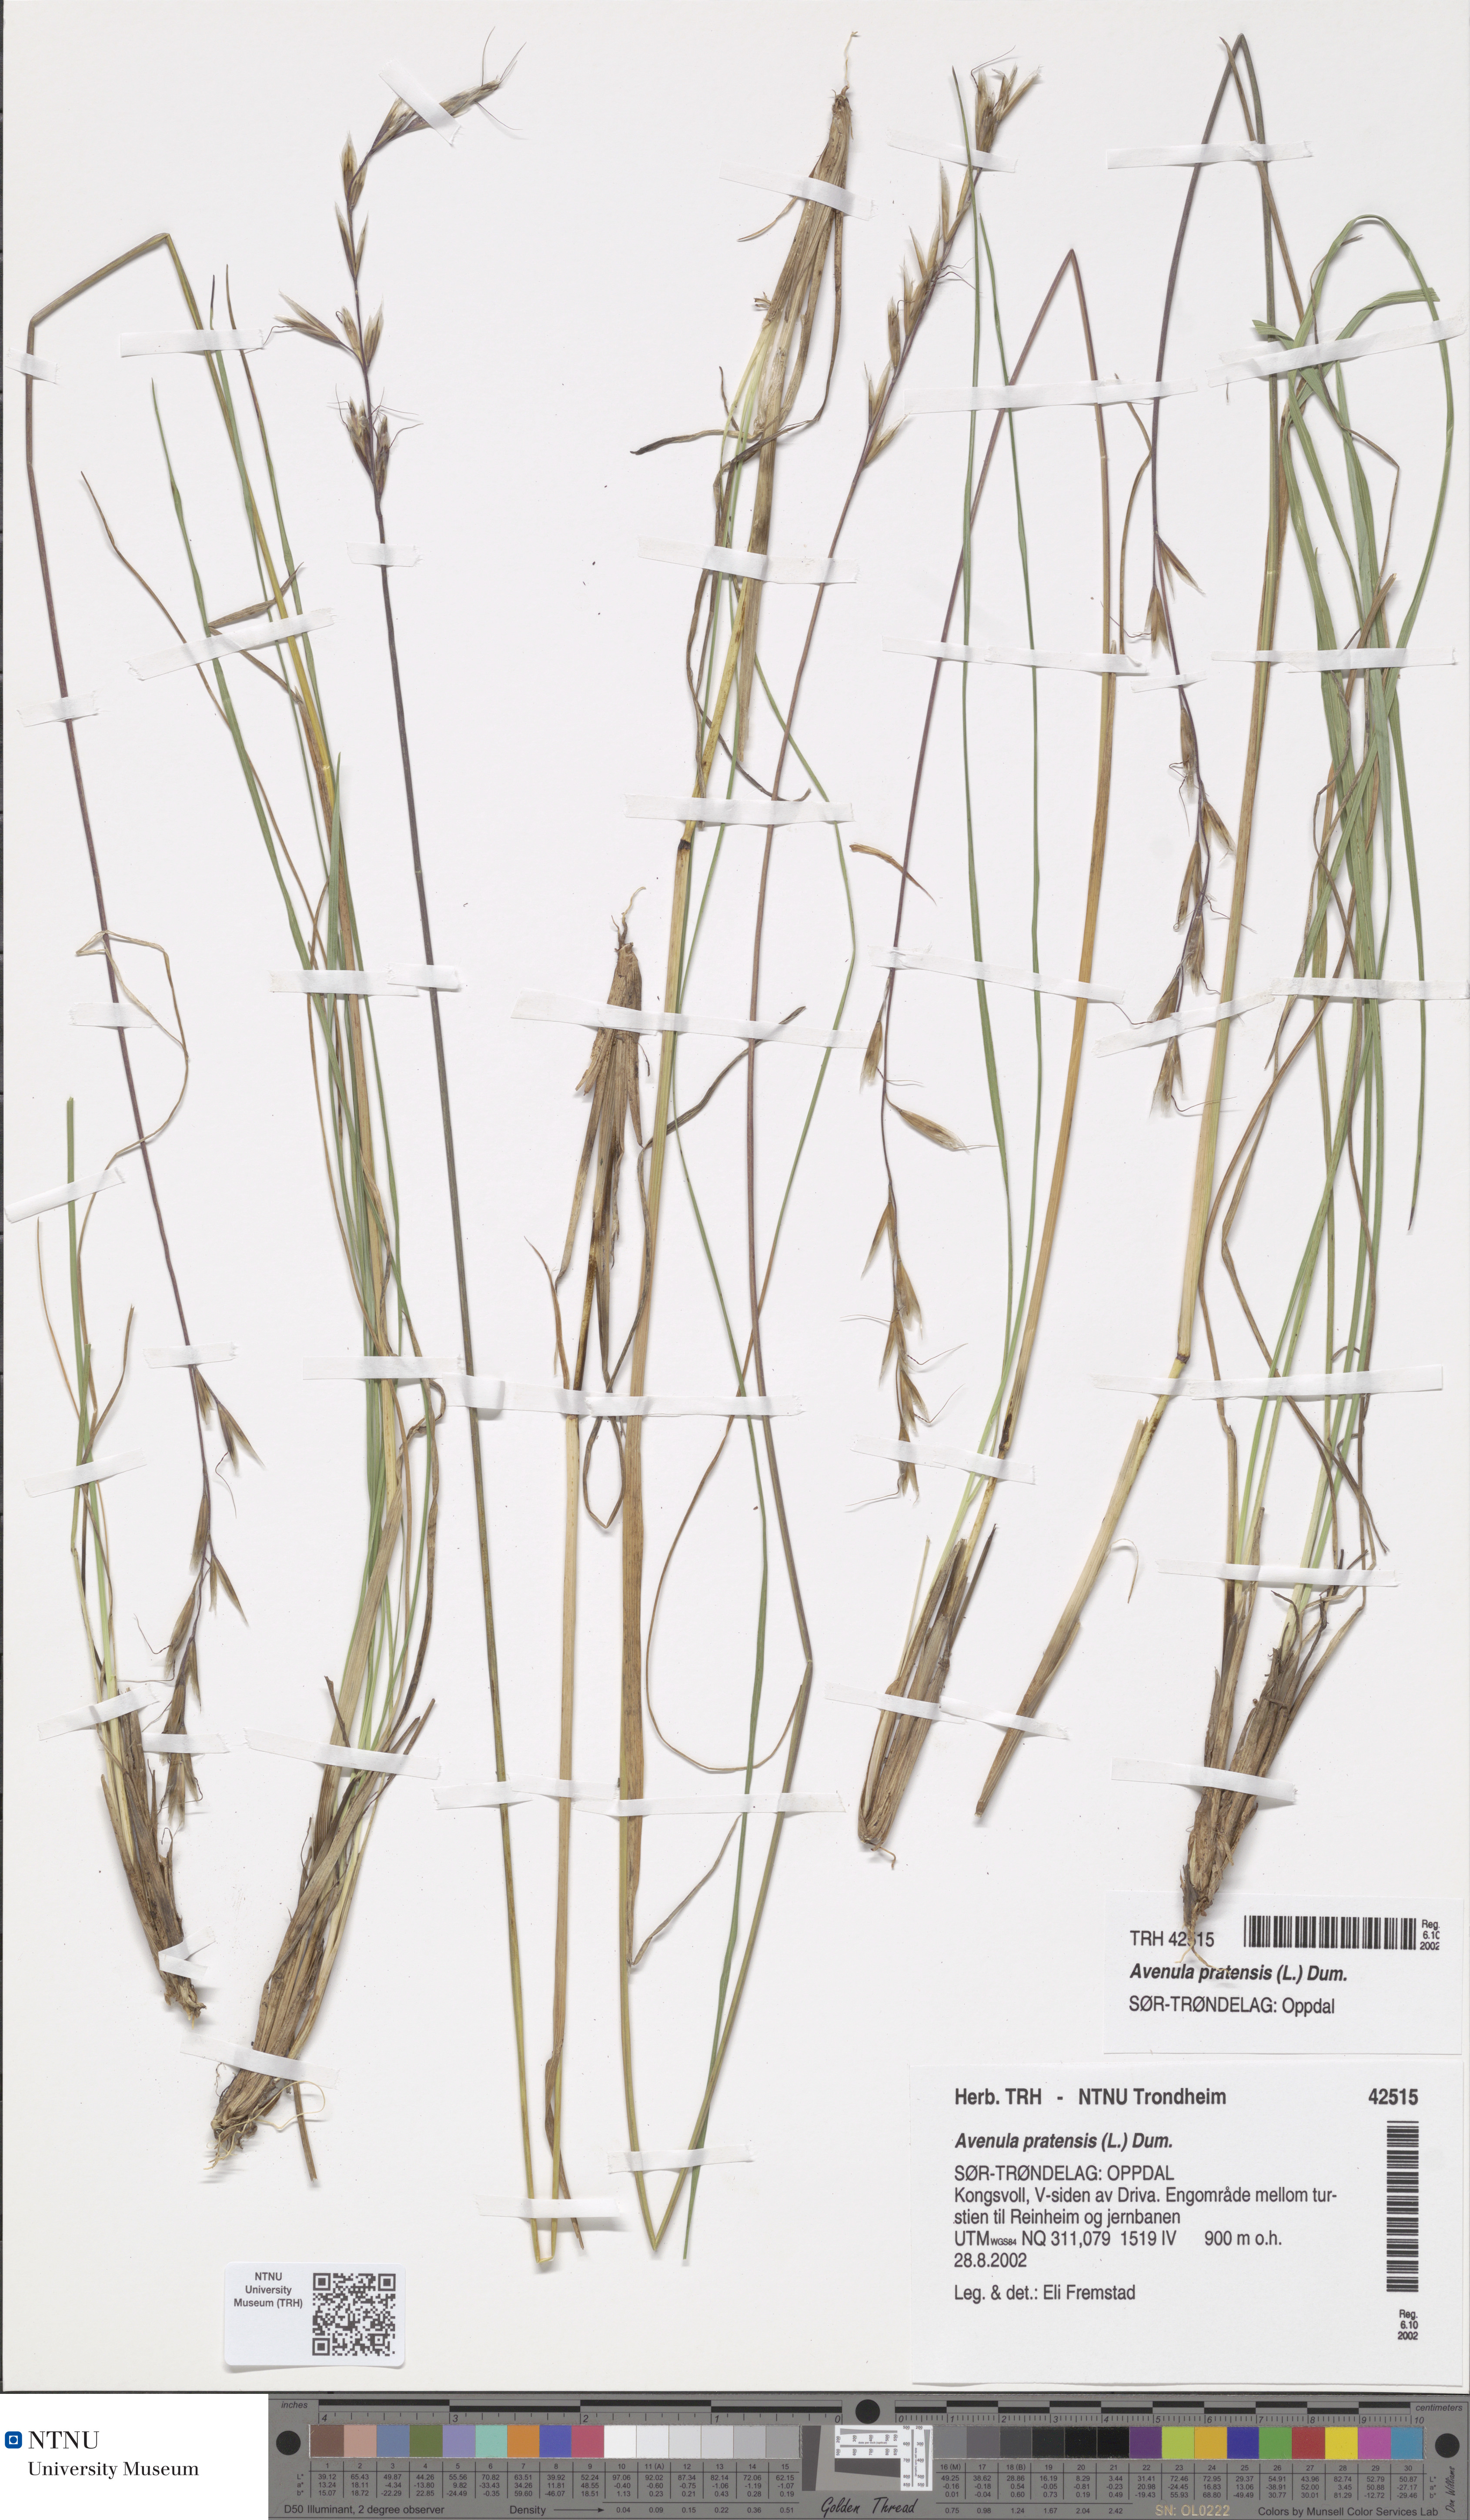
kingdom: Plantae
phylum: Tracheophyta
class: Liliopsida
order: Poales
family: Poaceae
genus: Helictochloa
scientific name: Helictochloa pratensis
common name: Meadow oat grass
